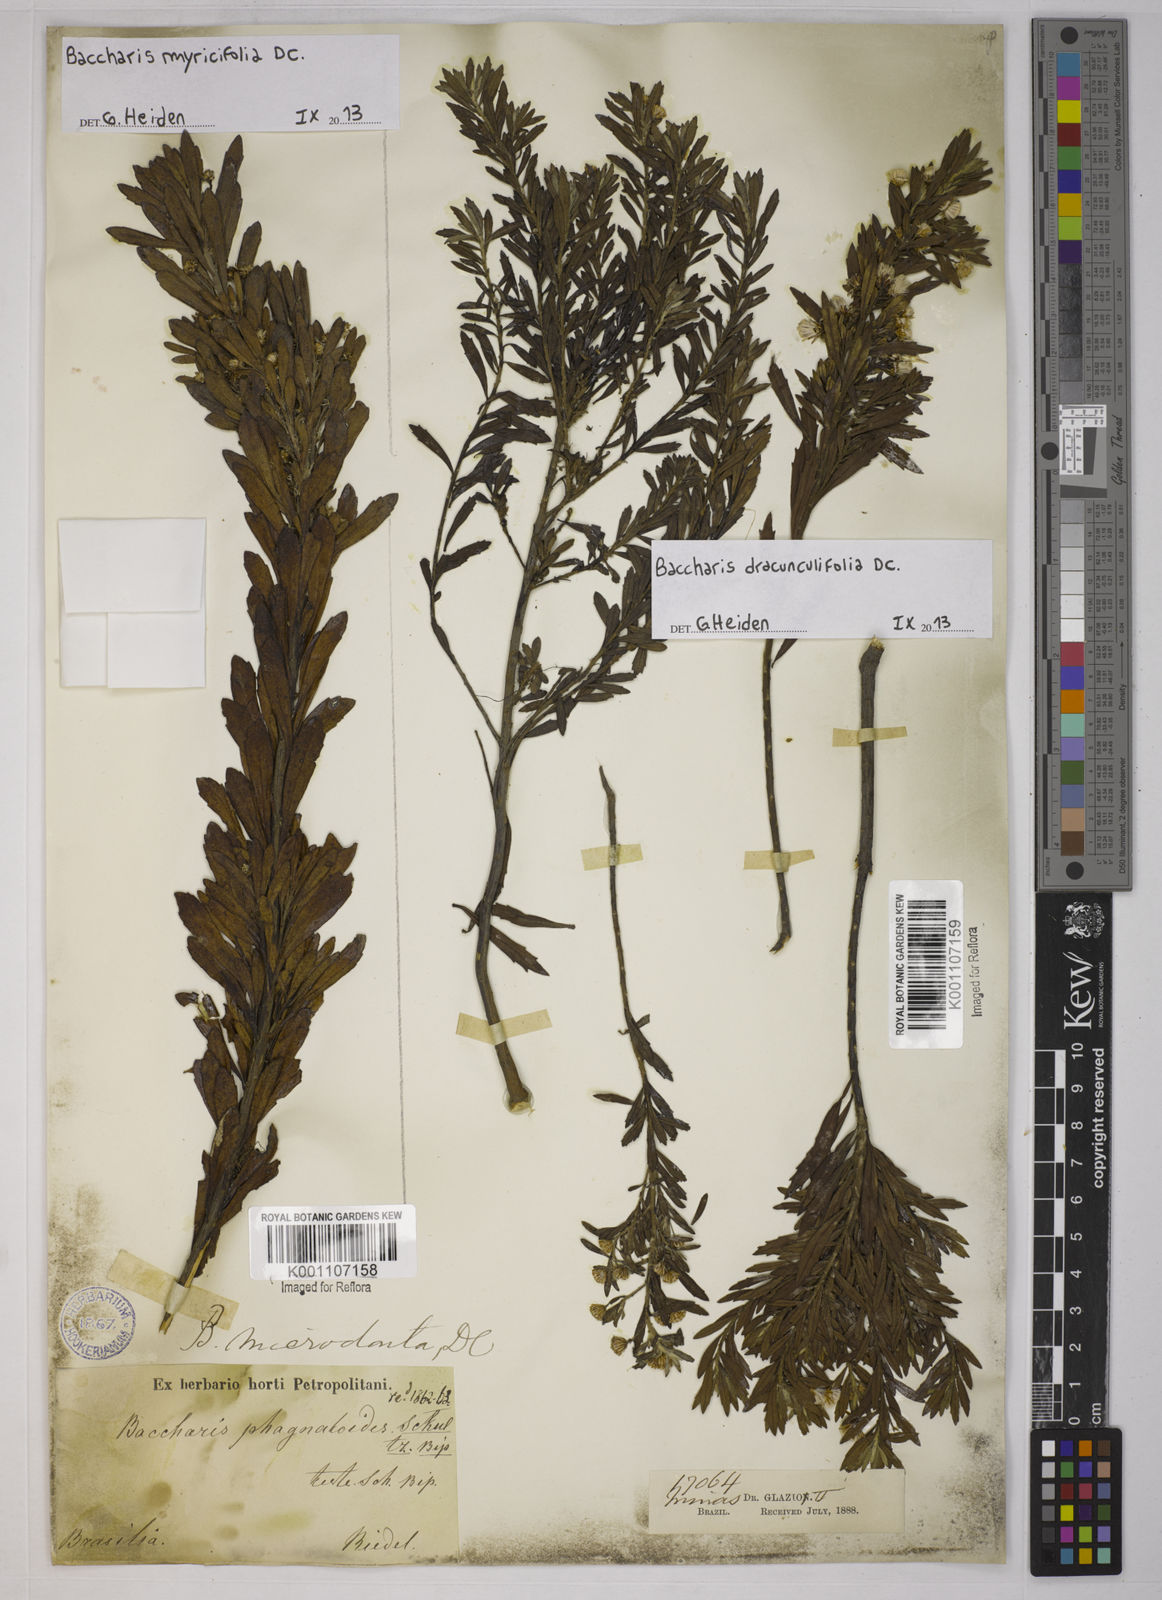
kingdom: Plantae
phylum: Tracheophyta
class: Magnoliopsida
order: Asterales
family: Asteraceae
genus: Baccharis
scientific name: Baccharis myricifolia
